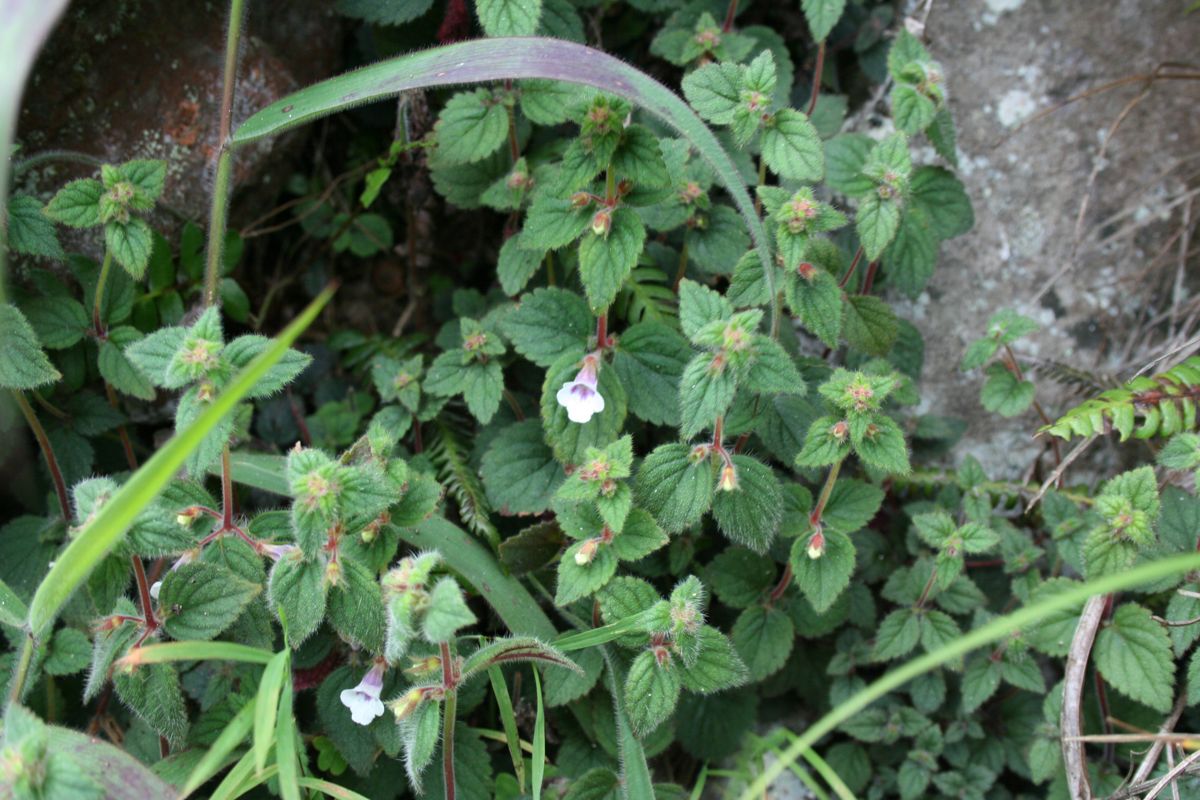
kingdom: Plantae
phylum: Tracheophyta
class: Magnoliopsida
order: Lamiales
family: Gesneriaceae
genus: Achimenes
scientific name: Achimenes erecta
